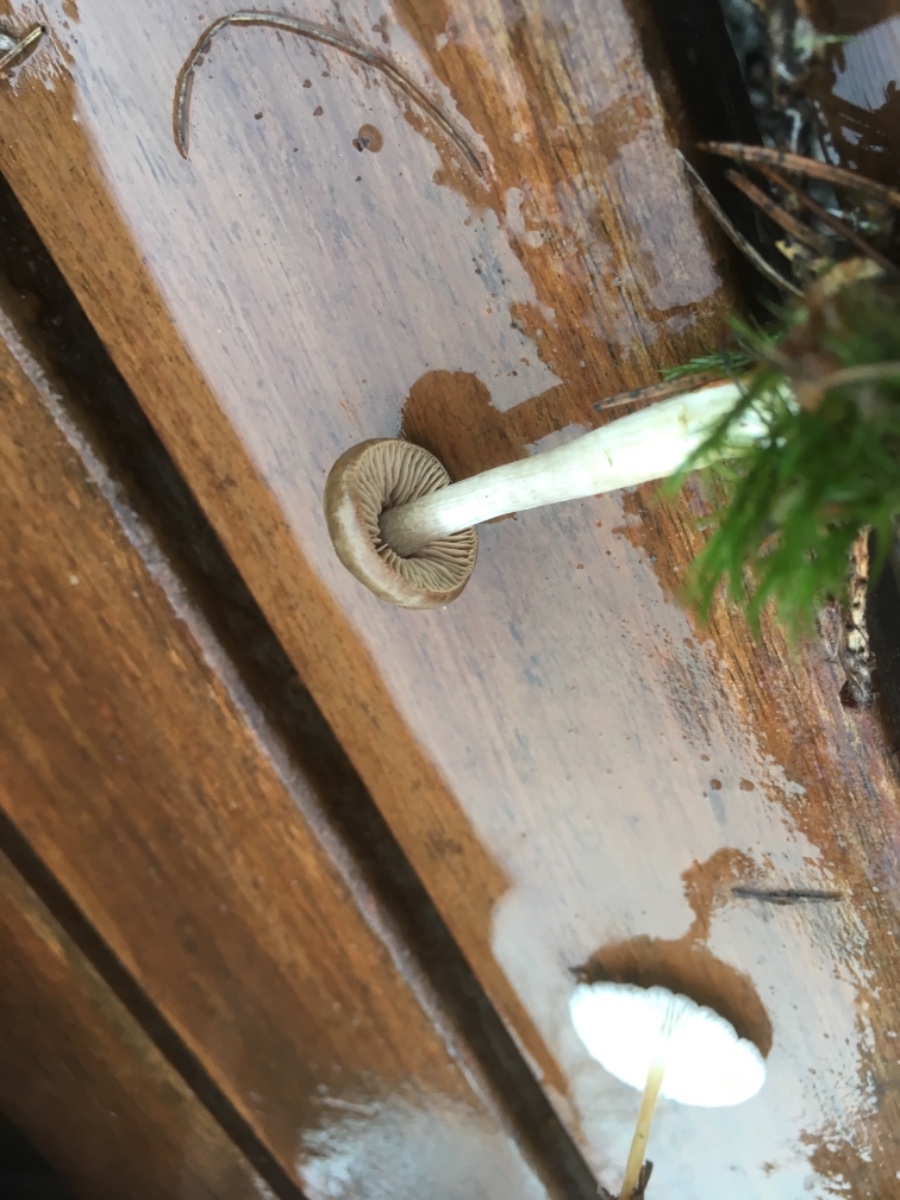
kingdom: Fungi
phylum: Basidiomycota
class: Agaricomycetes
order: Agaricales
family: Entolomataceae
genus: Entoloma
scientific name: Entoloma
